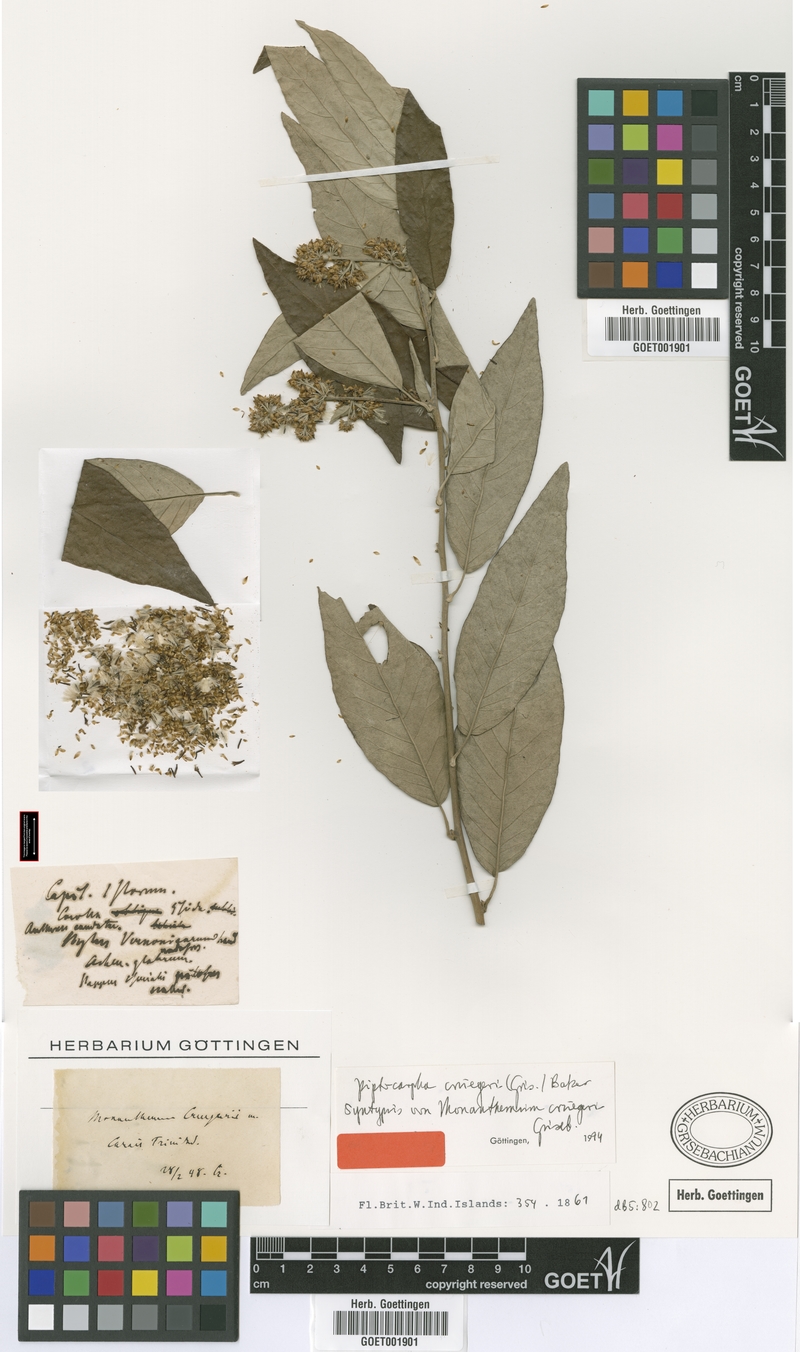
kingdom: Plantae
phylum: Tracheophyta
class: Magnoliopsida
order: Asterales
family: Asteraceae
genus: Piptocarpha
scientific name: Piptocarpha triflora
